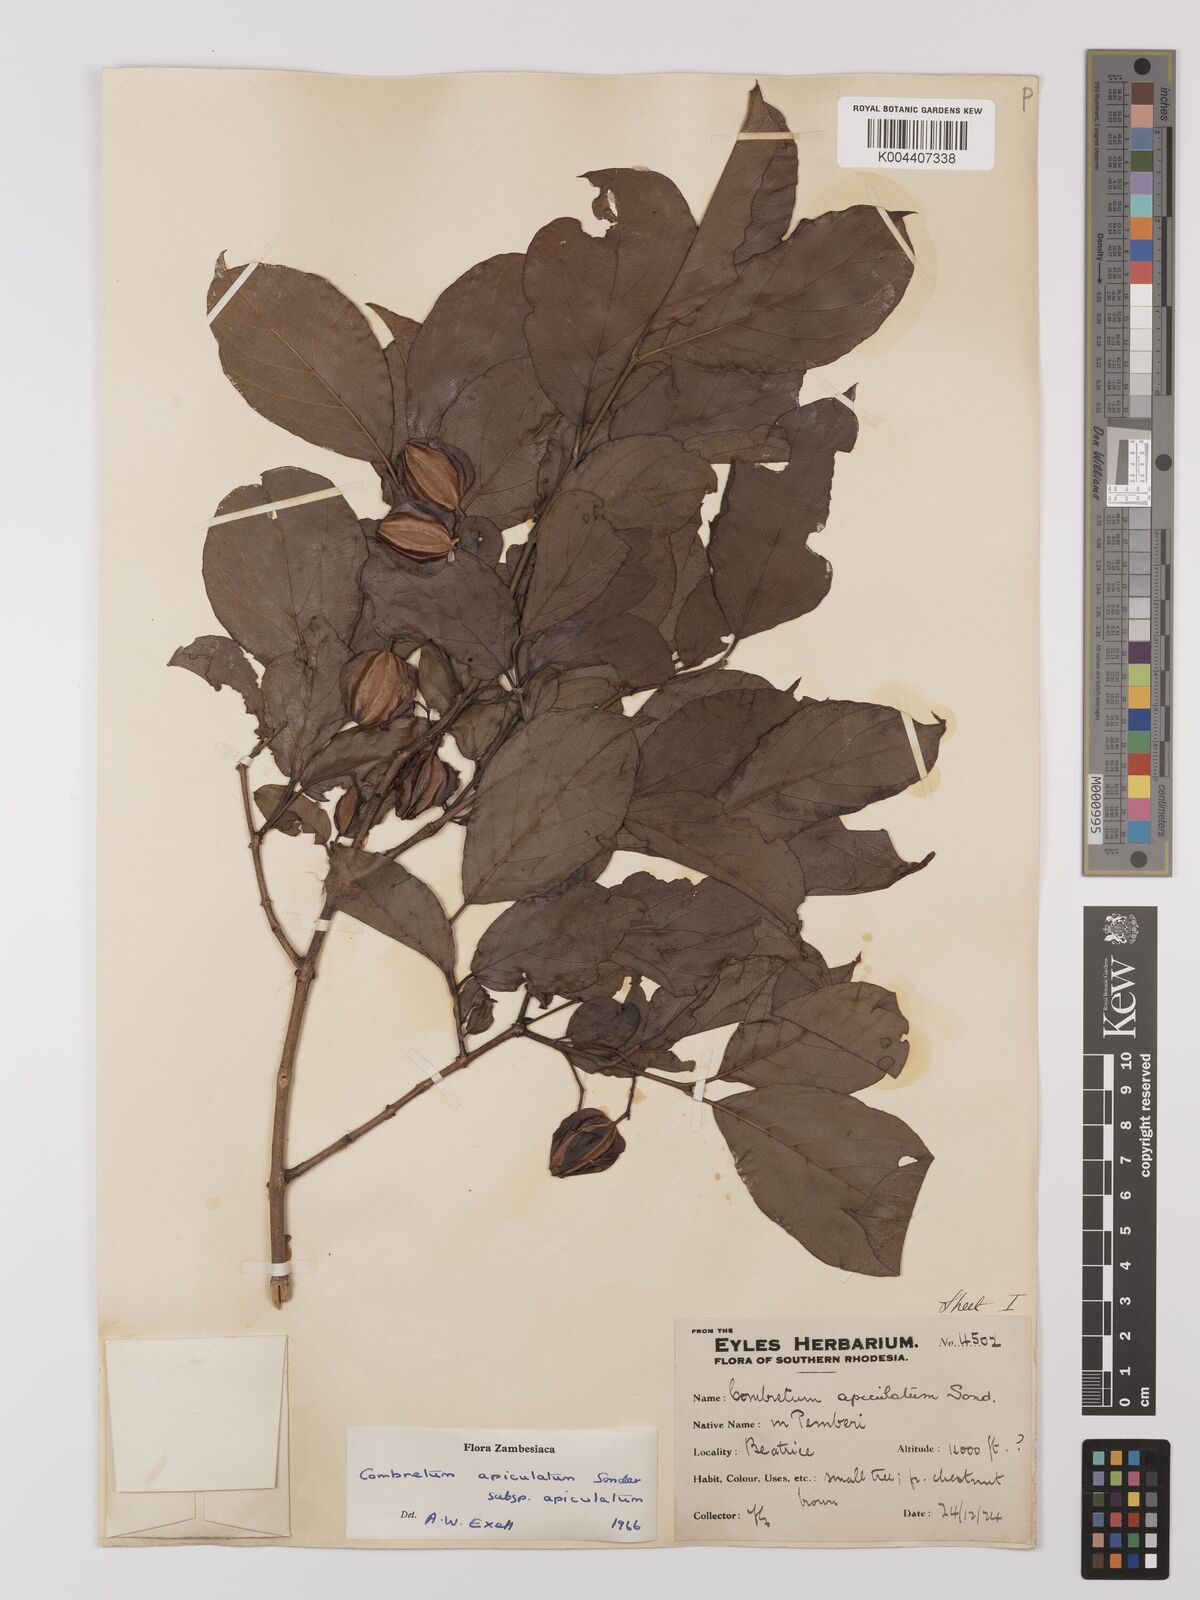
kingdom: Plantae
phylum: Tracheophyta
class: Magnoliopsida
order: Myrtales
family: Combretaceae
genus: Combretum
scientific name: Combretum apiculatum
